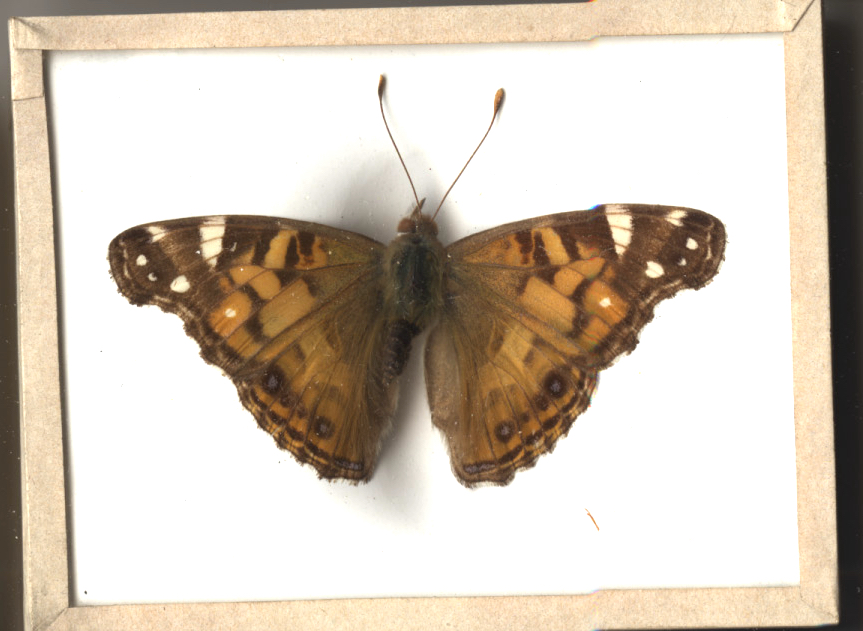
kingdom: Animalia
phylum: Arthropoda
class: Insecta
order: Lepidoptera
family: Nymphalidae
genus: Vanessa
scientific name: Vanessa virginiensis
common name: American Lady
